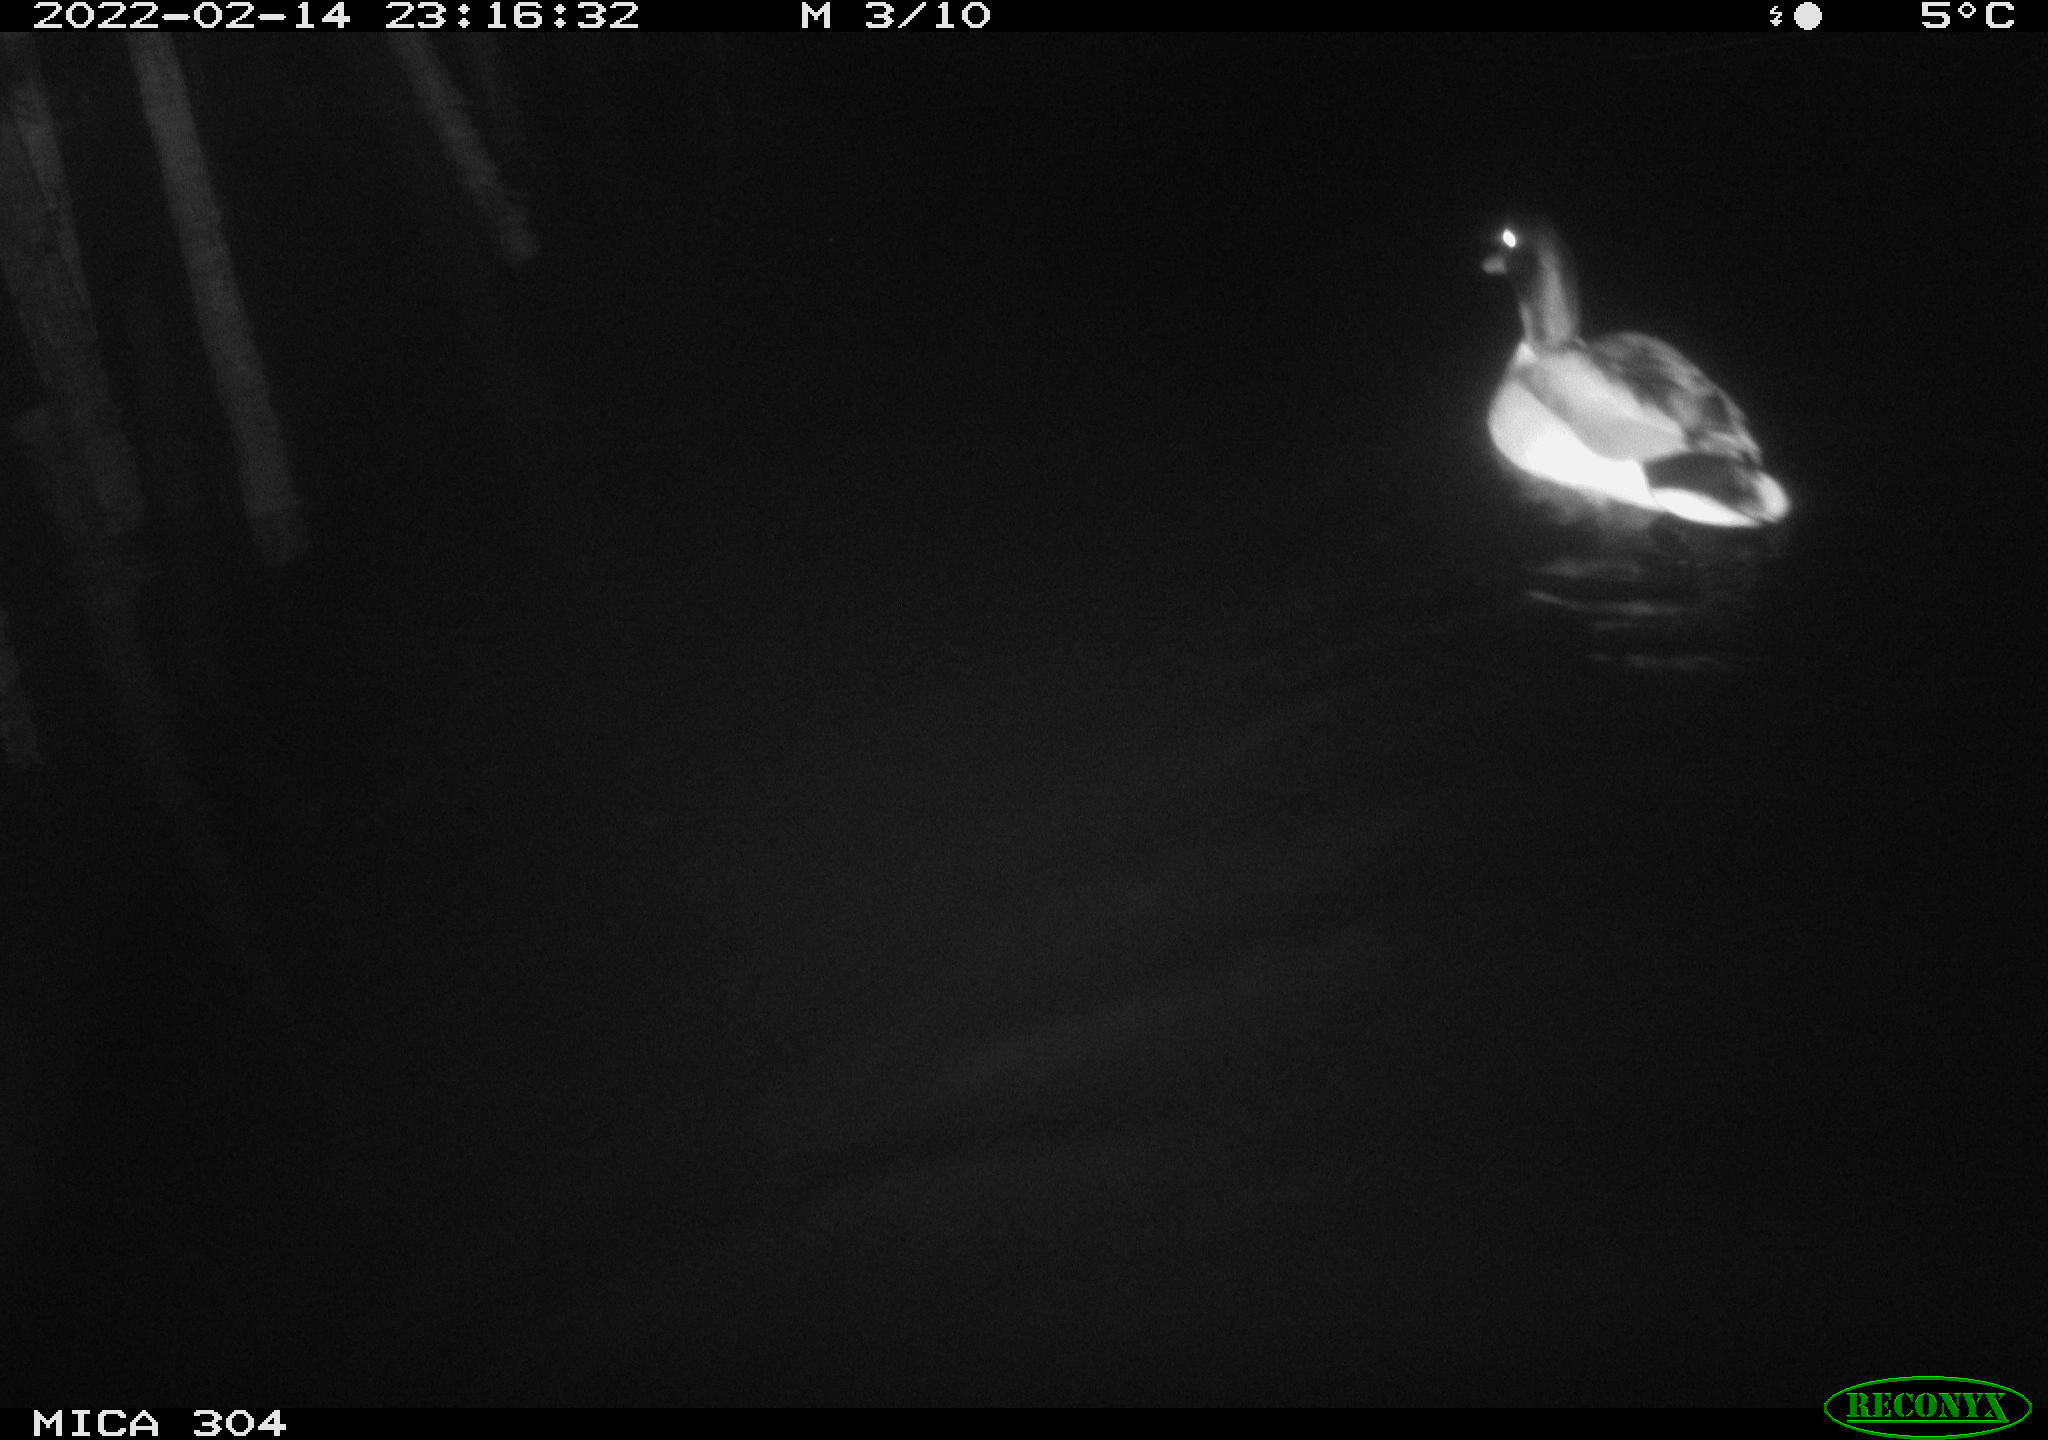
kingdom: Animalia
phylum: Chordata
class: Aves
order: Anseriformes
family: Anatidae
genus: Anas
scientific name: Anas platyrhynchos
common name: Mallard
